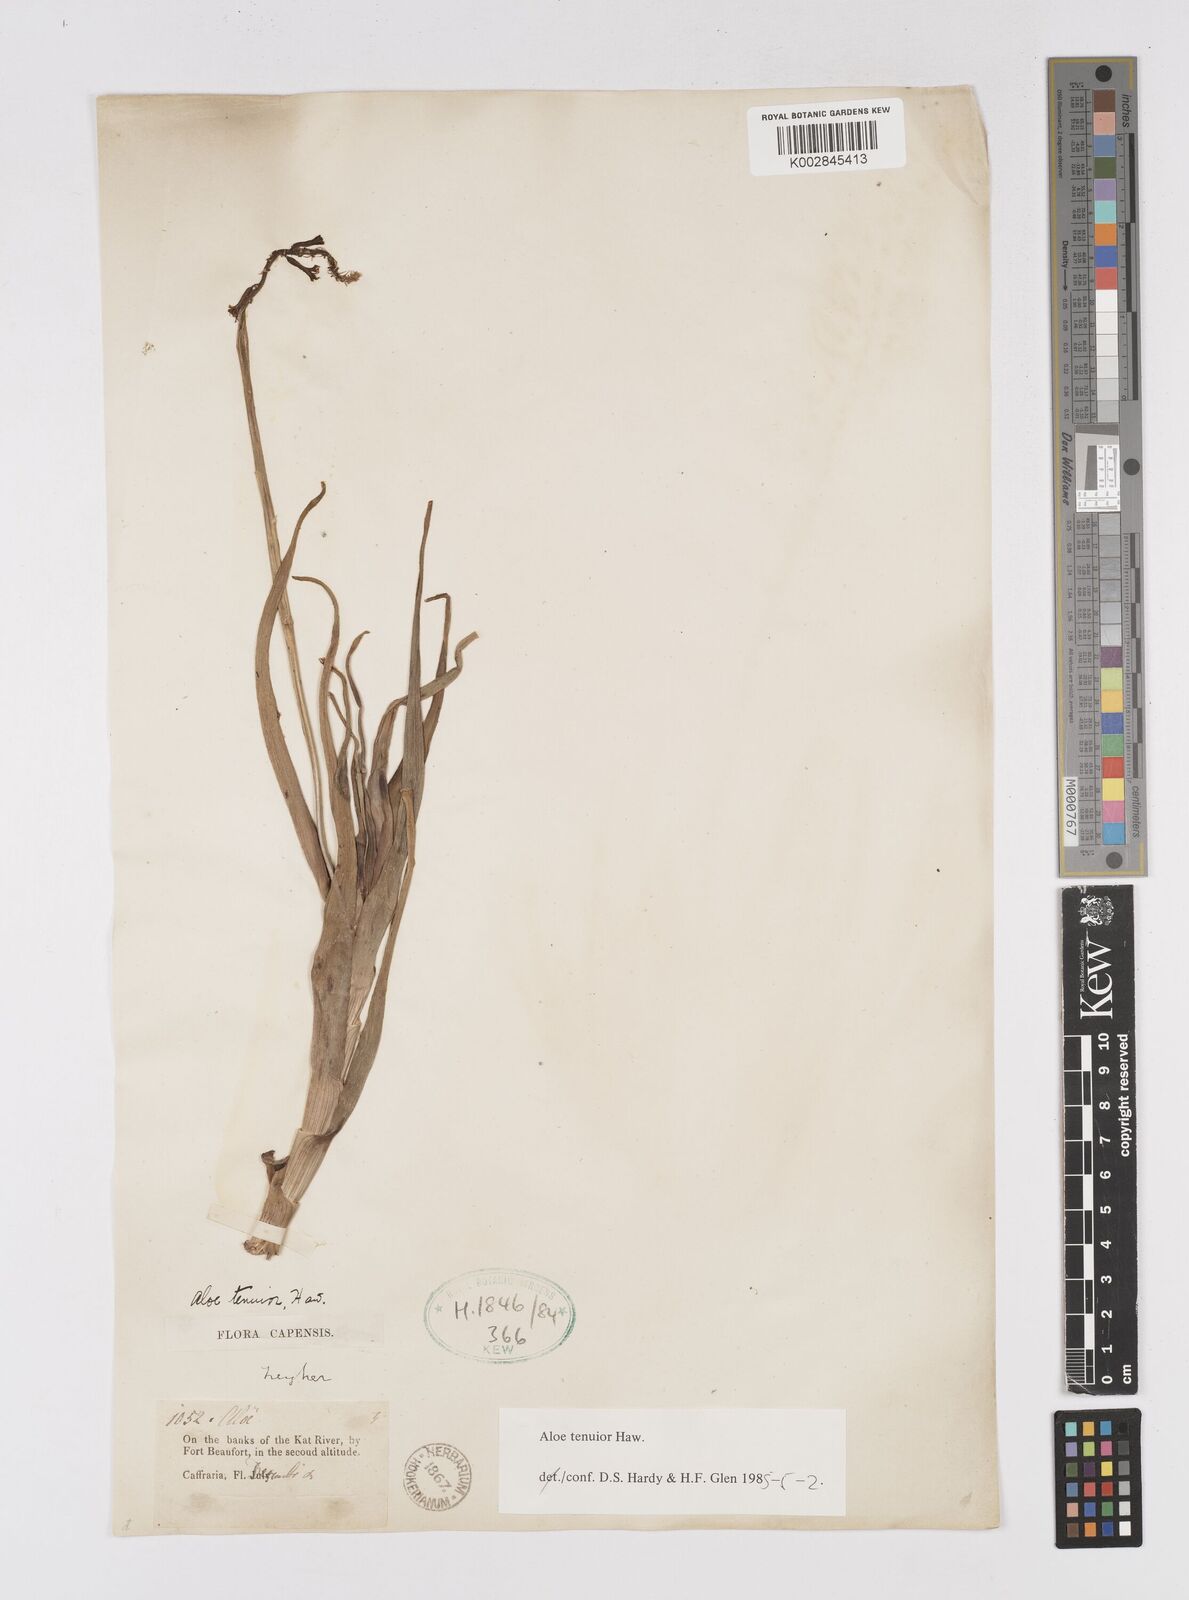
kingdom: Plantae
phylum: Tracheophyta
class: Liliopsida
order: Asparagales
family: Asphodelaceae
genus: Aloiampelos
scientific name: Aloiampelos tenuior
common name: Fence aloe
